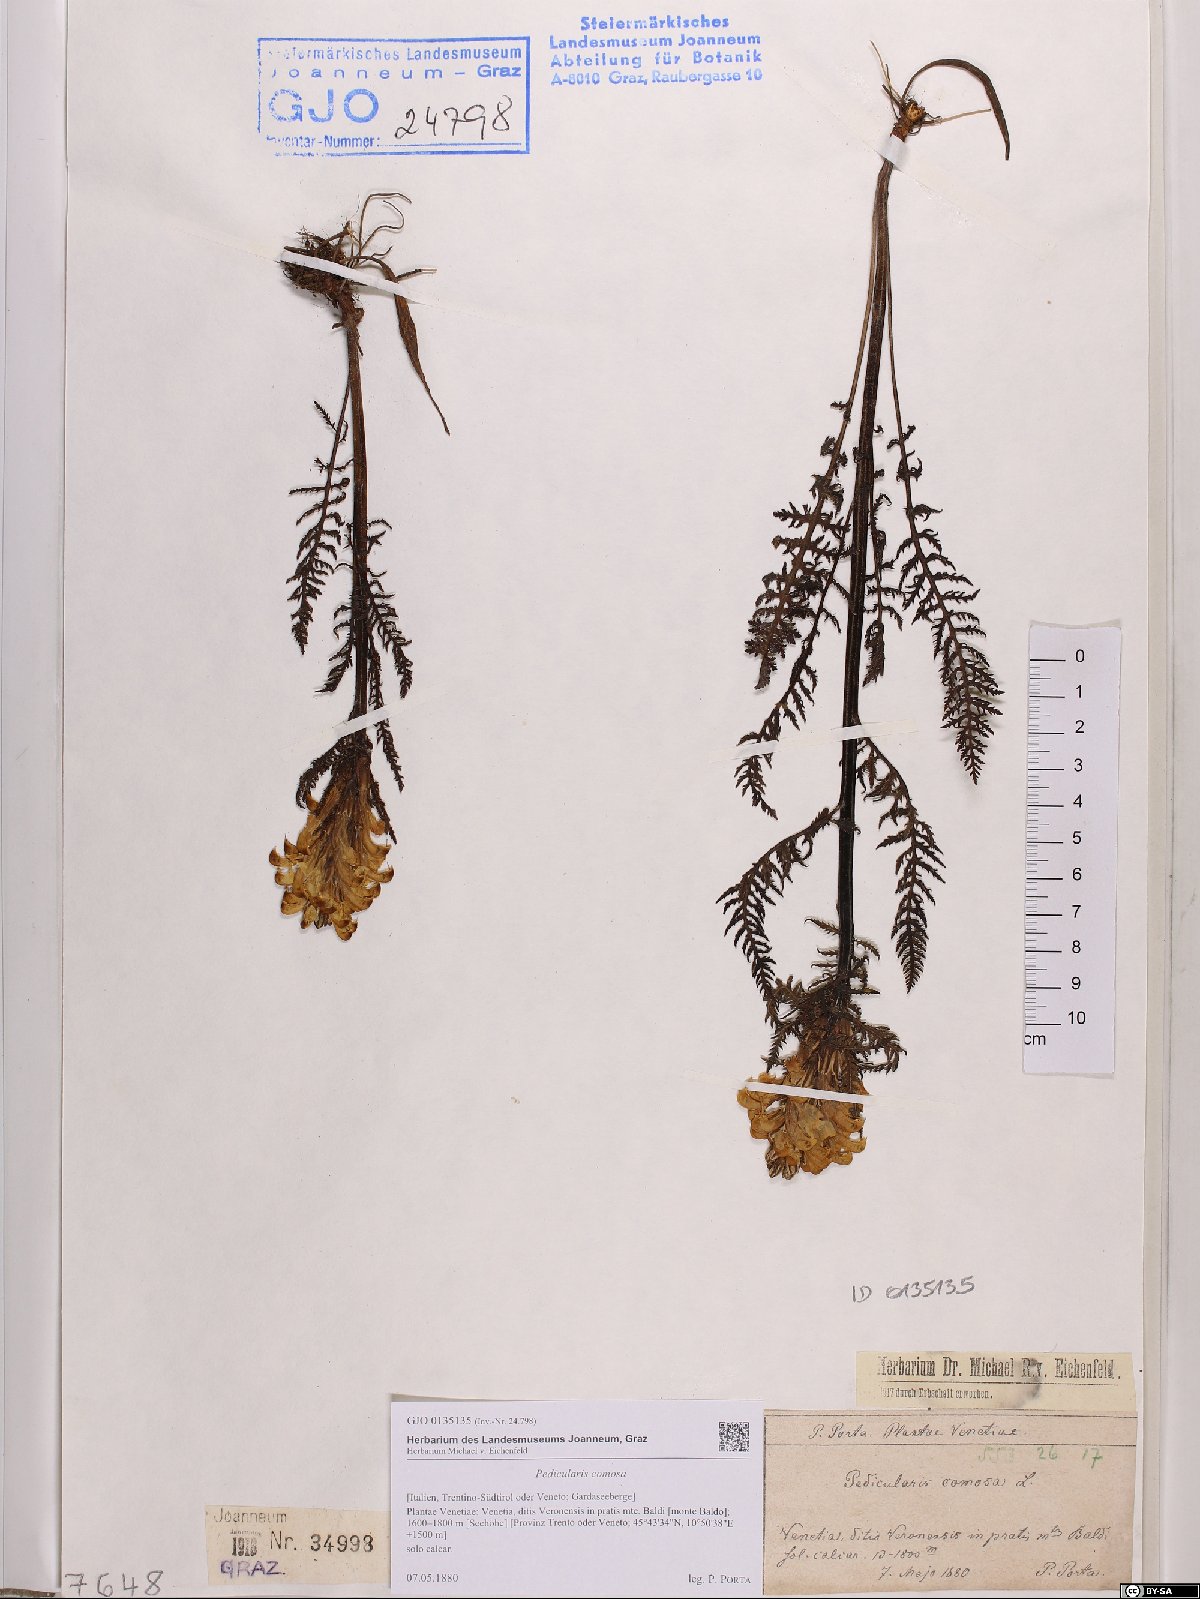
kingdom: Plantae
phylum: Tracheophyta
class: Magnoliopsida
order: Lamiales
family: Orobanchaceae
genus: Pedicularis
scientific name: Pedicularis comosa
